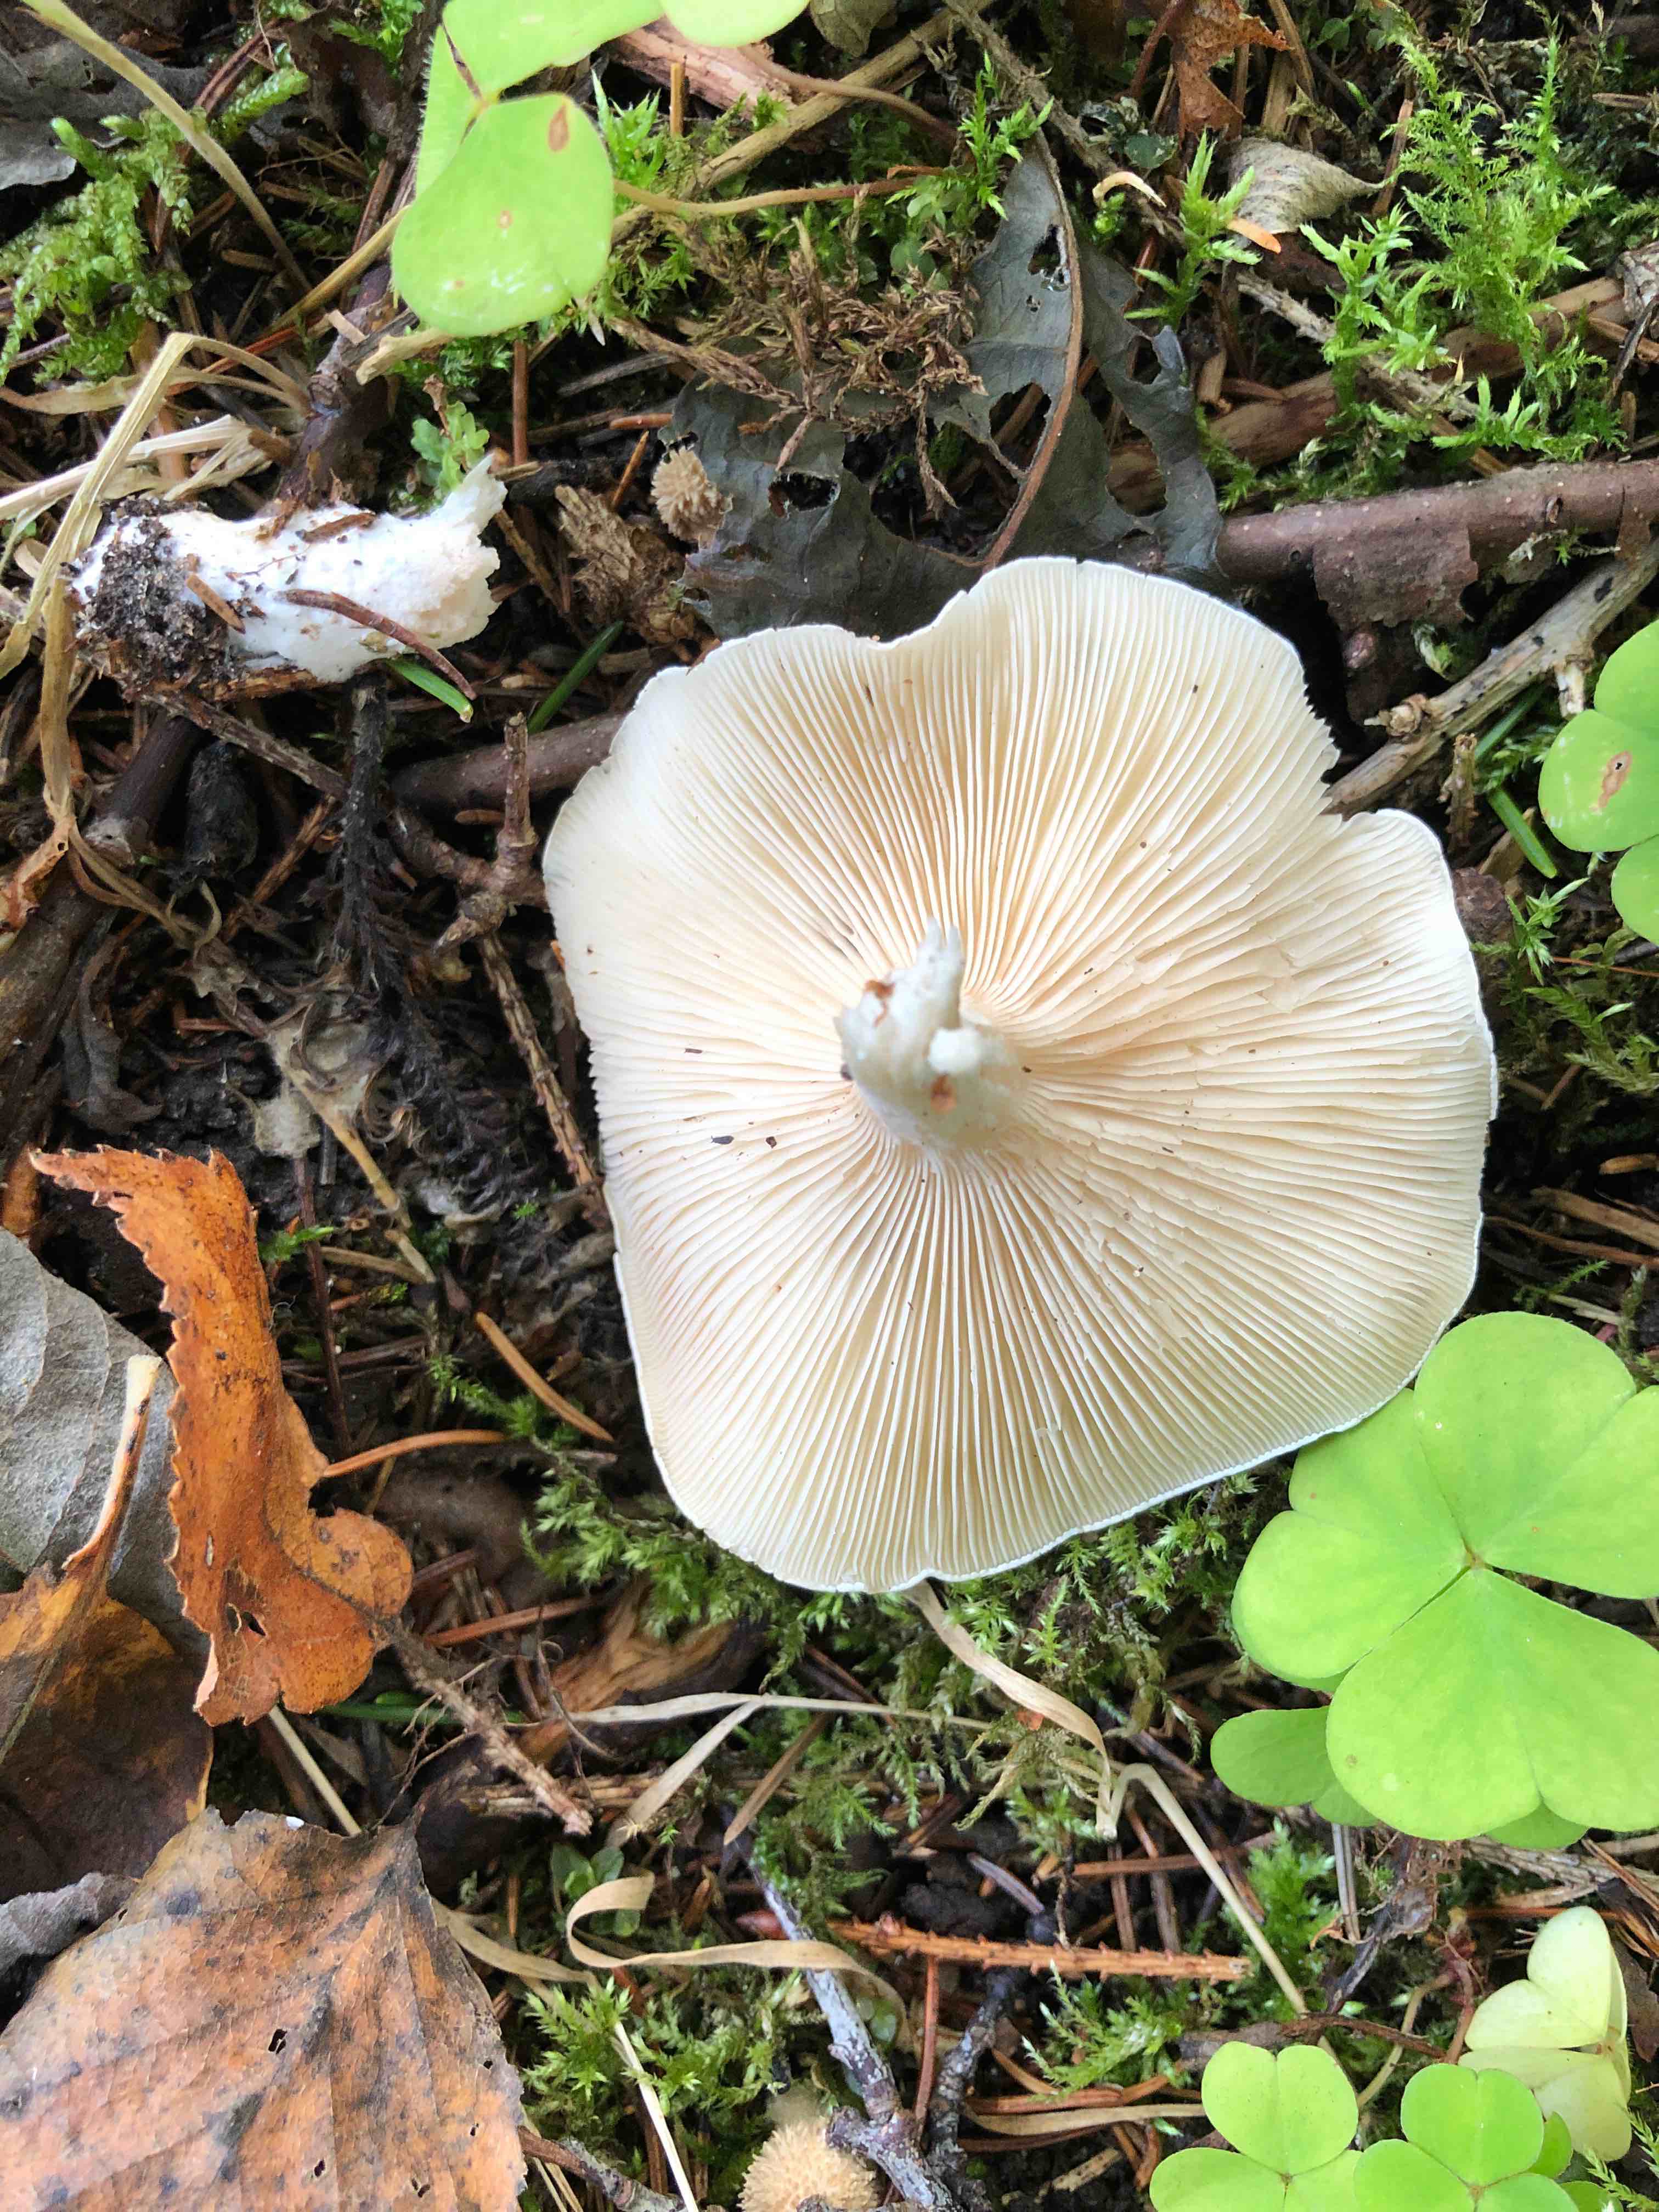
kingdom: Fungi
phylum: Basidiomycota
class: Agaricomycetes
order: Agaricales
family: Entolomataceae
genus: Clitopilus
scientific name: Clitopilus prunulus
